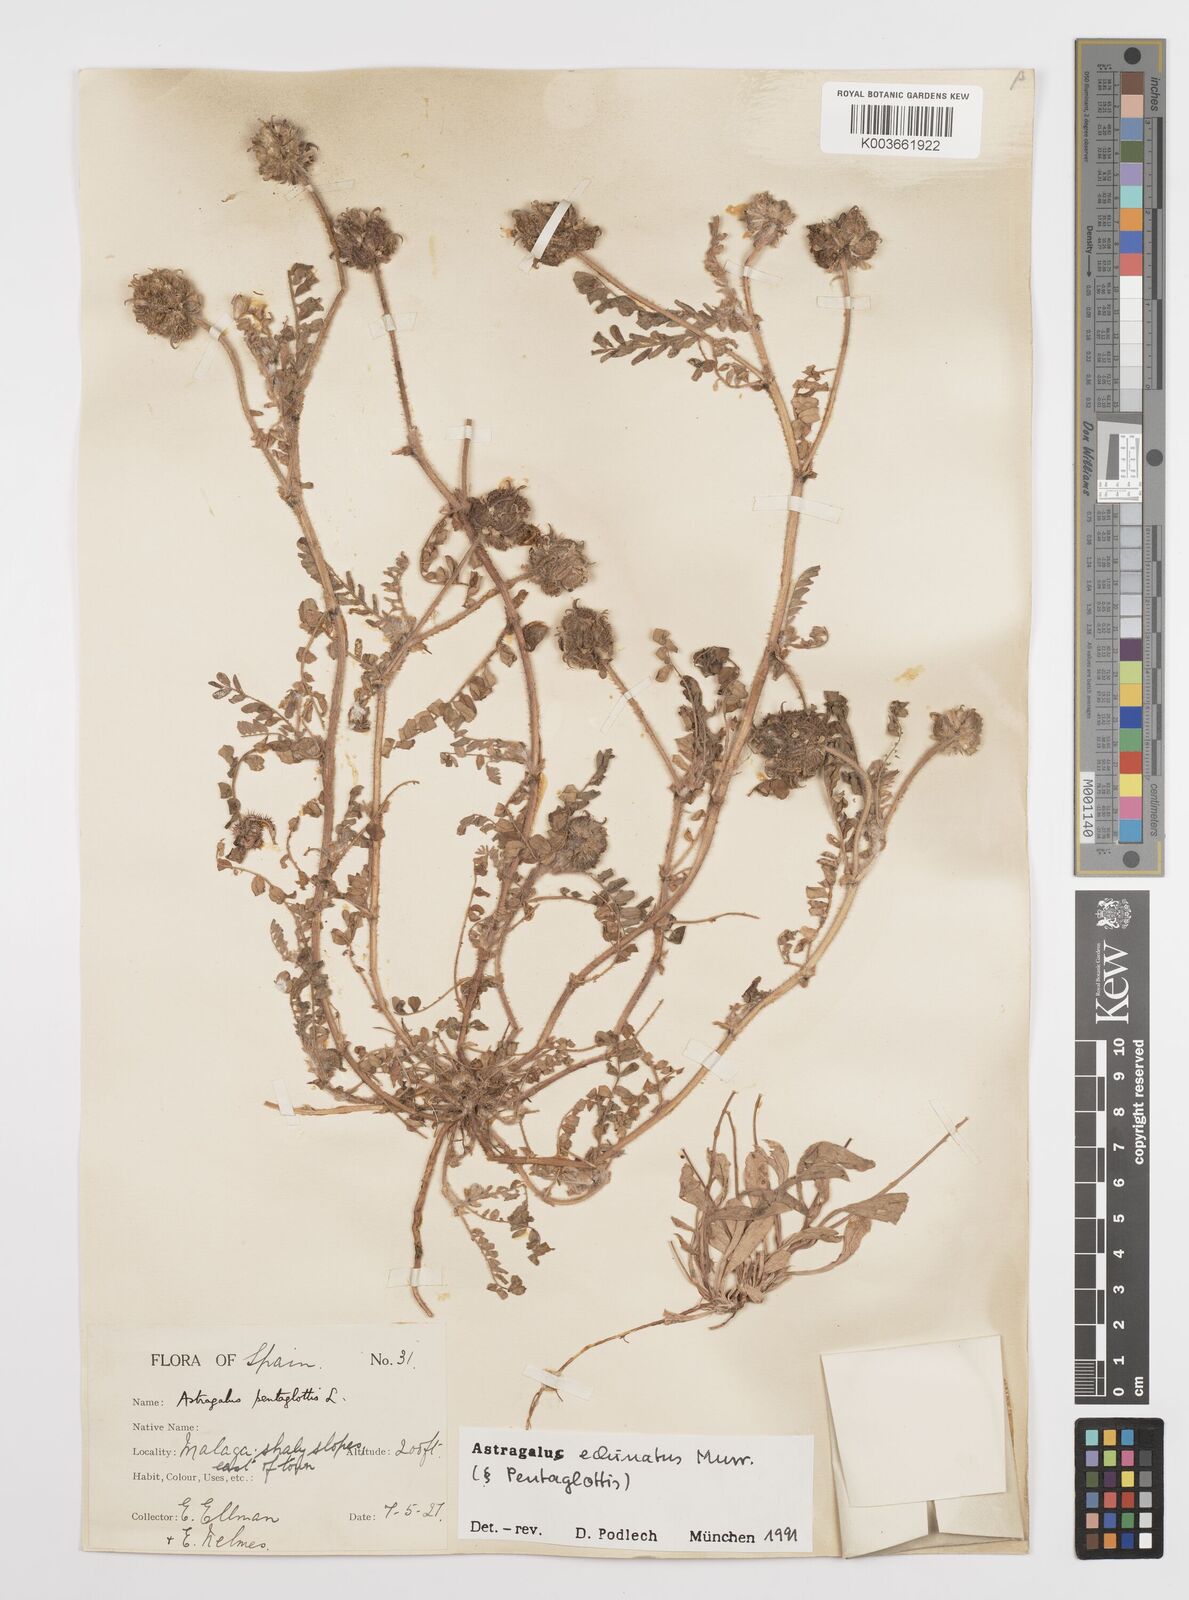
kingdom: Plantae
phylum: Tracheophyta
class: Magnoliopsida
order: Fabales
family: Fabaceae
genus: Astragalus
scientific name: Astragalus echinatus
